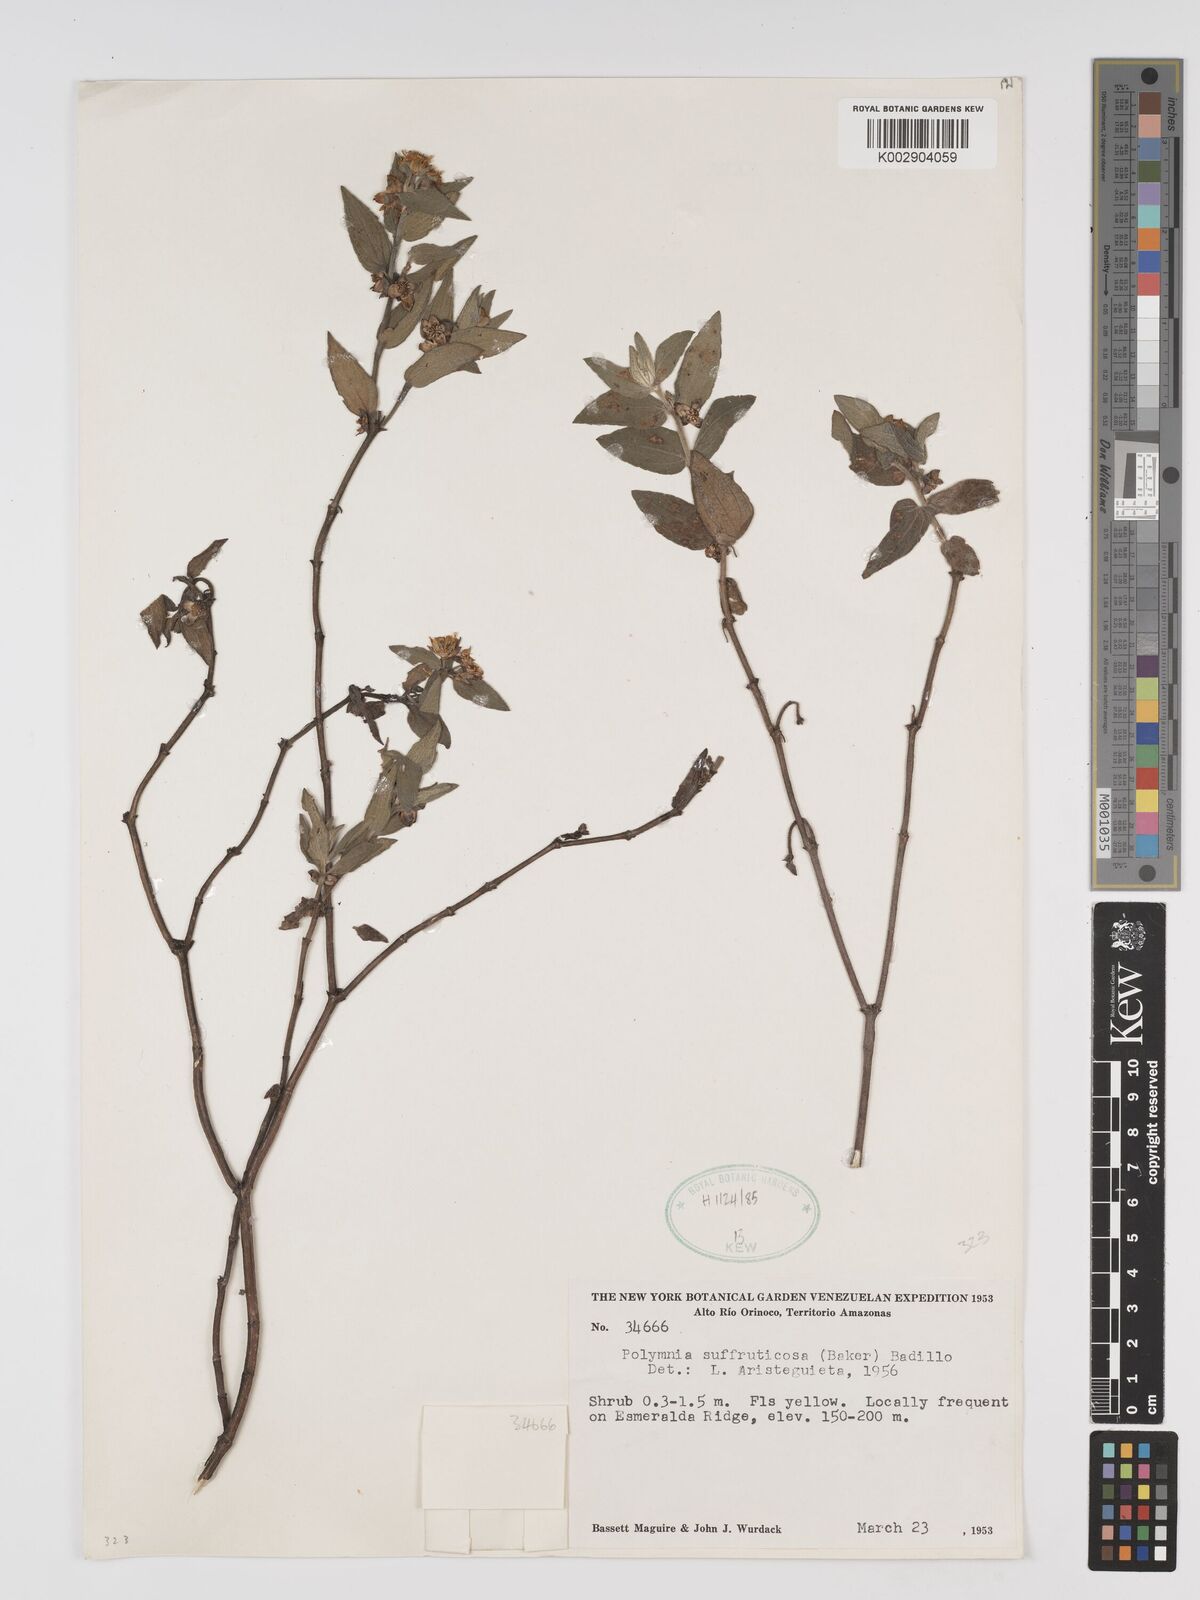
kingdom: Plantae
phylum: Tracheophyta
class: Magnoliopsida
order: Asterales
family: Asteraceae
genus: Unxia
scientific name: Unxia suffruticosa
